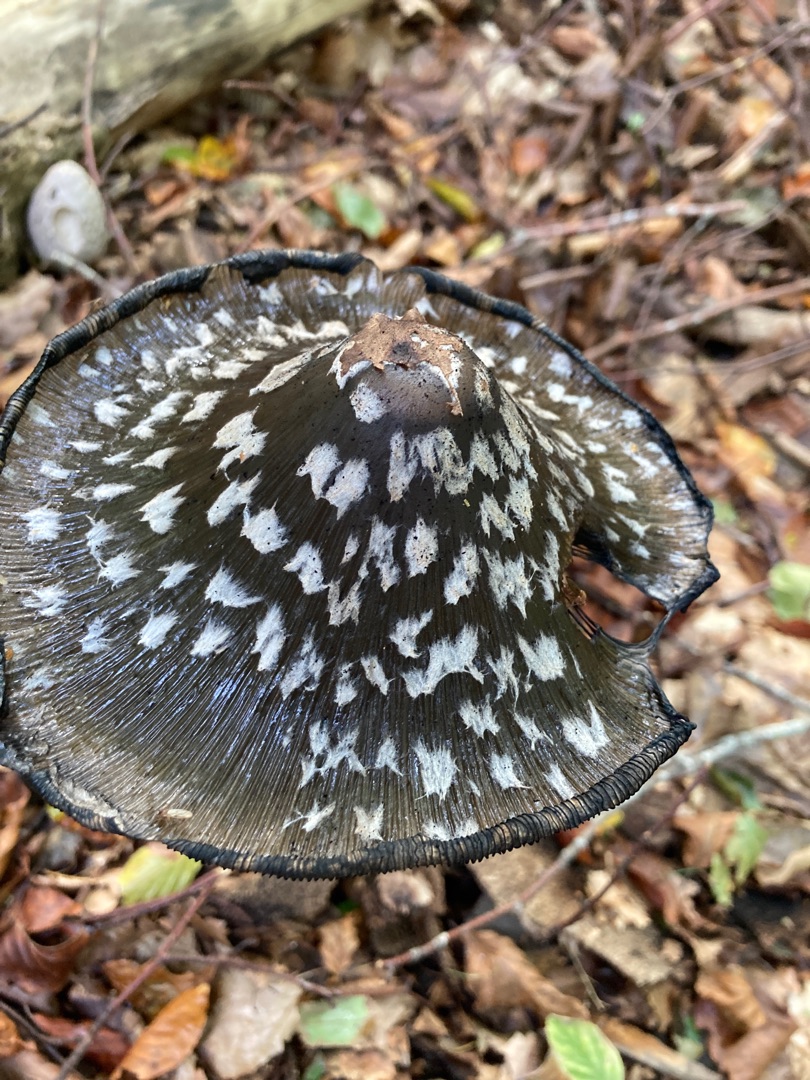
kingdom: Fungi
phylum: Basidiomycota
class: Agaricomycetes
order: Agaricales
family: Psathyrellaceae
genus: Coprinopsis
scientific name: Coprinopsis picacea
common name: Skade-blækhat
